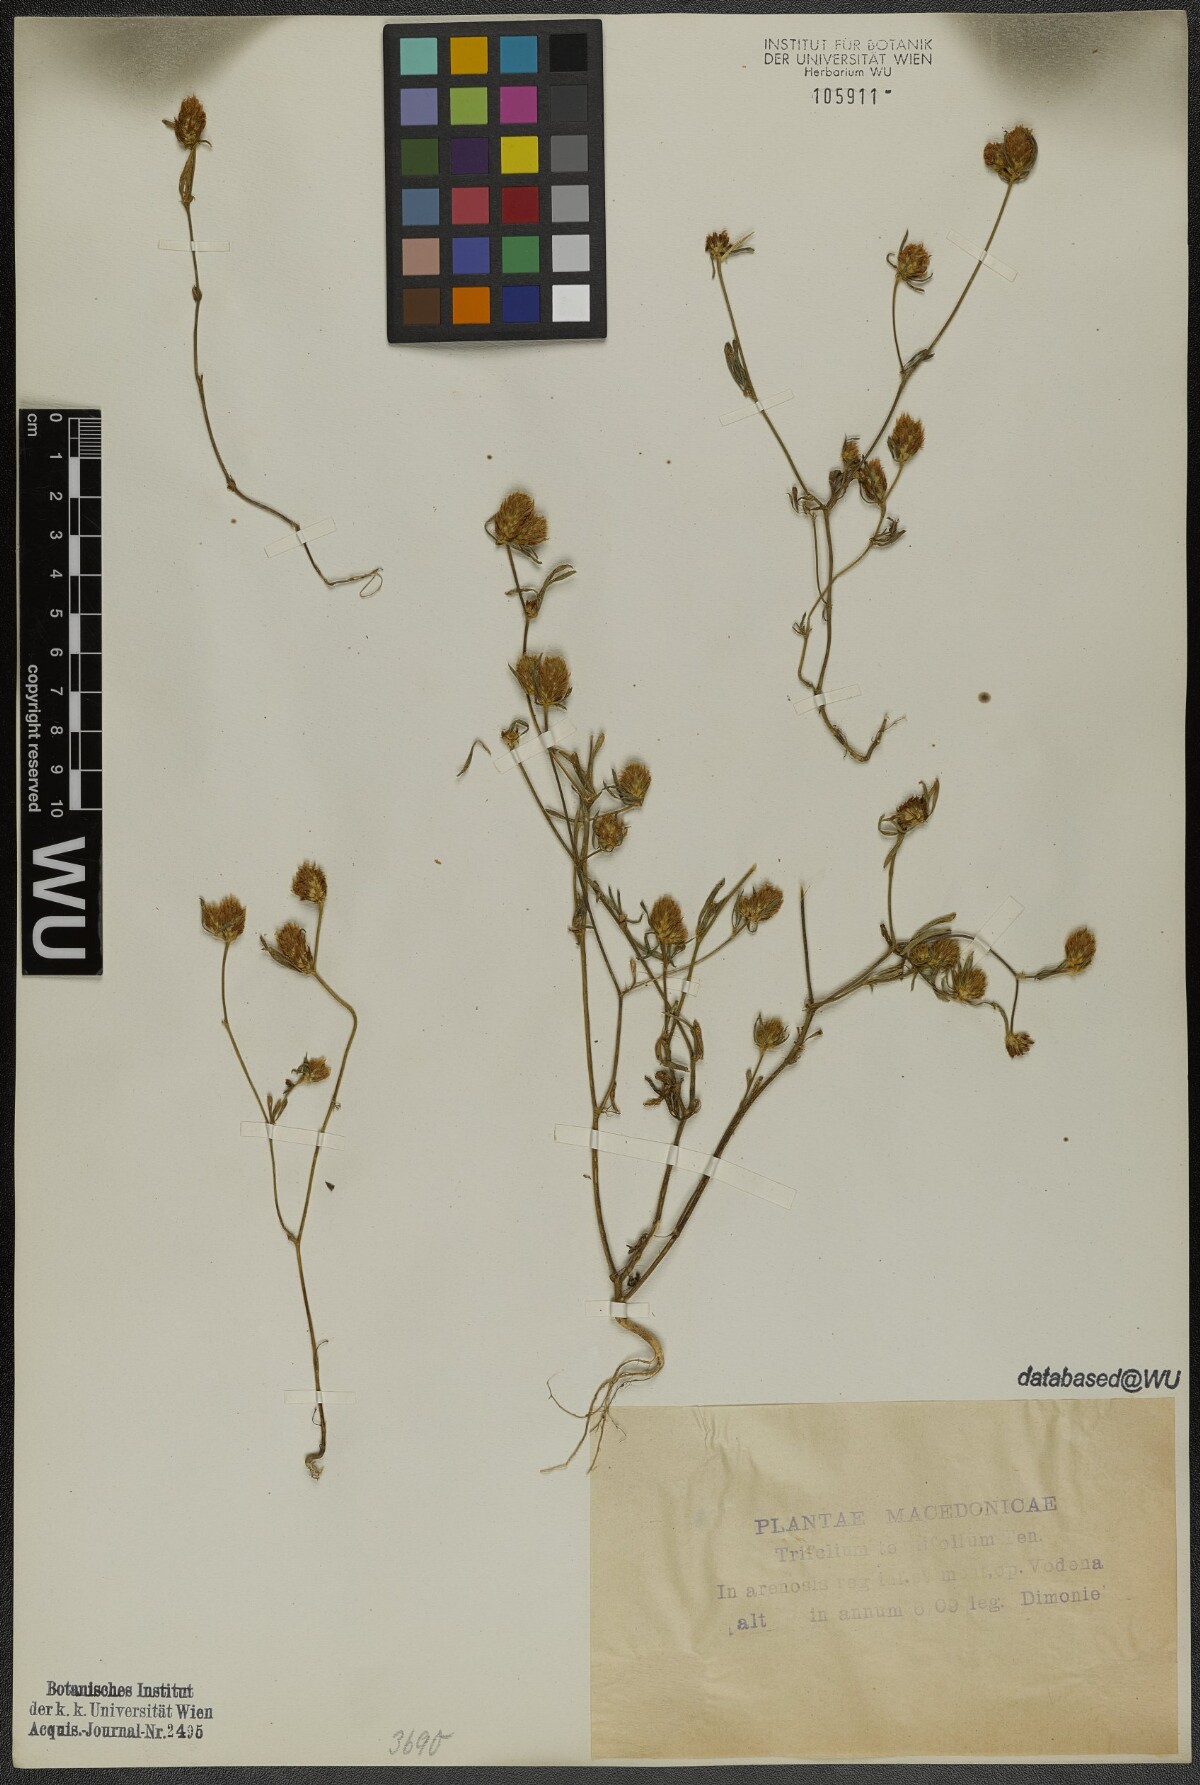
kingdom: Plantae
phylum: Tracheophyta
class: Magnoliopsida
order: Fabales
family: Fabaceae
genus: Trifolium
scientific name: Trifolium tenuifolium
